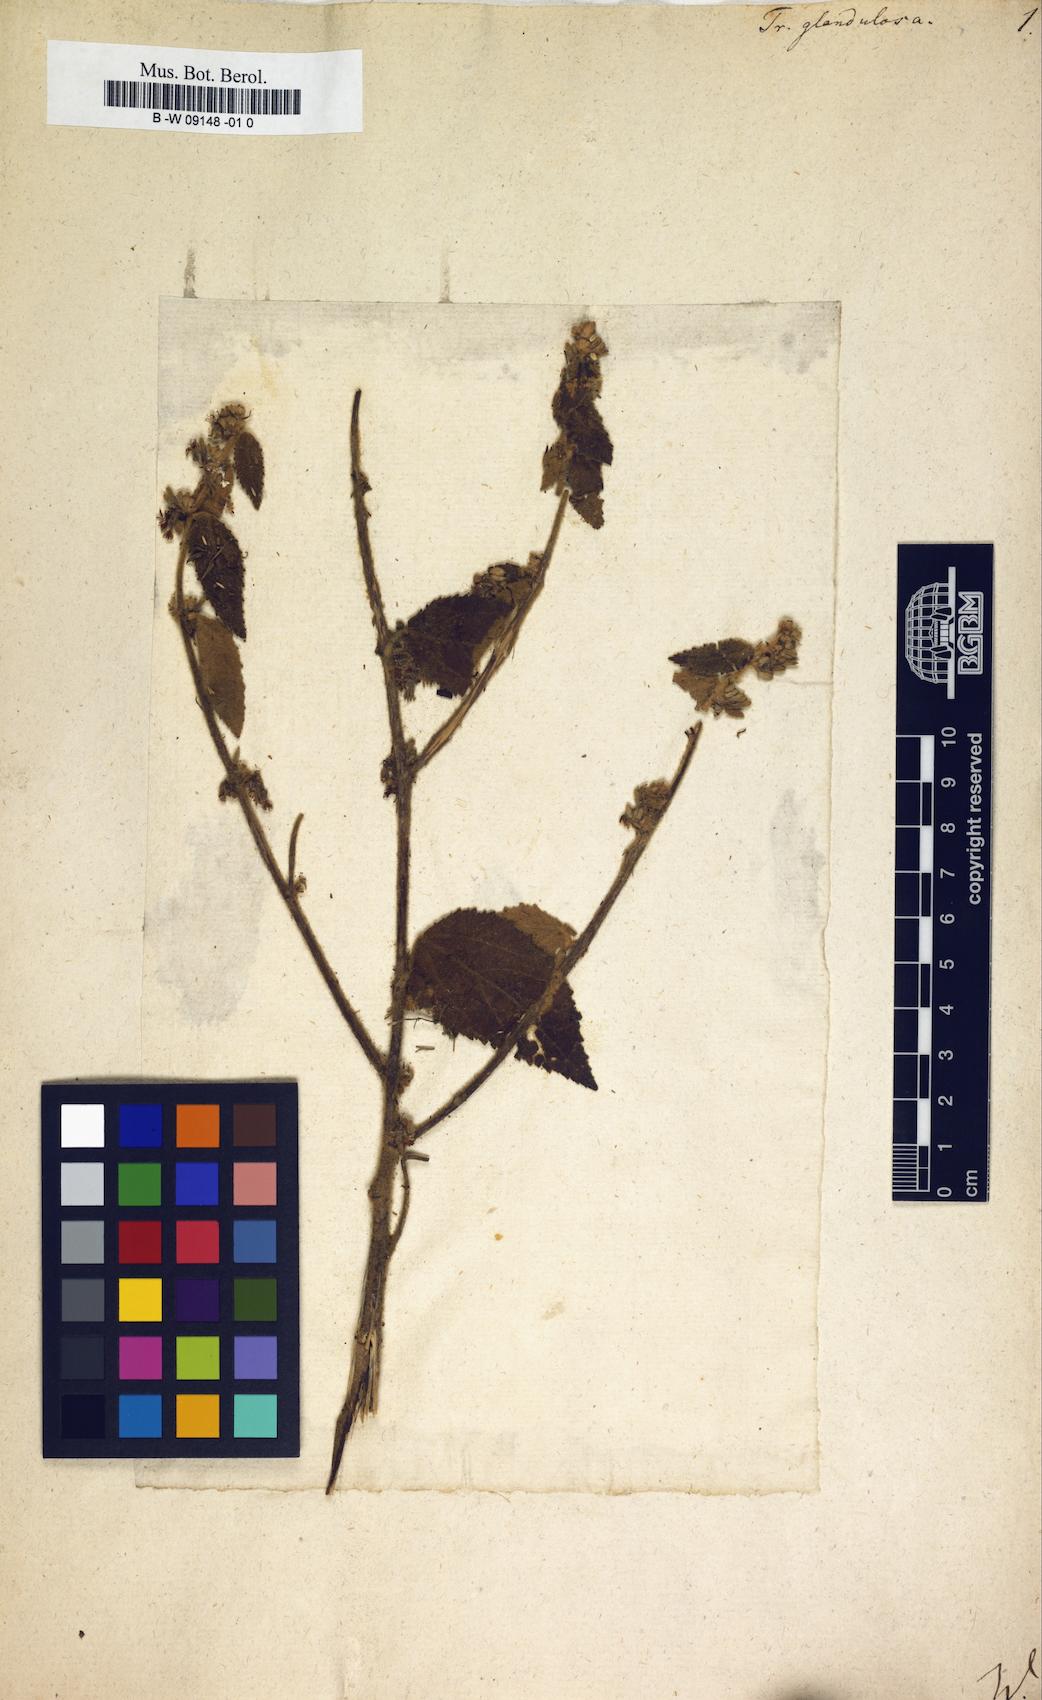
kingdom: Plantae
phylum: Tracheophyta
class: Magnoliopsida
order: Malvales
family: Malvaceae
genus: Triumfetta
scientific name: Triumfetta
